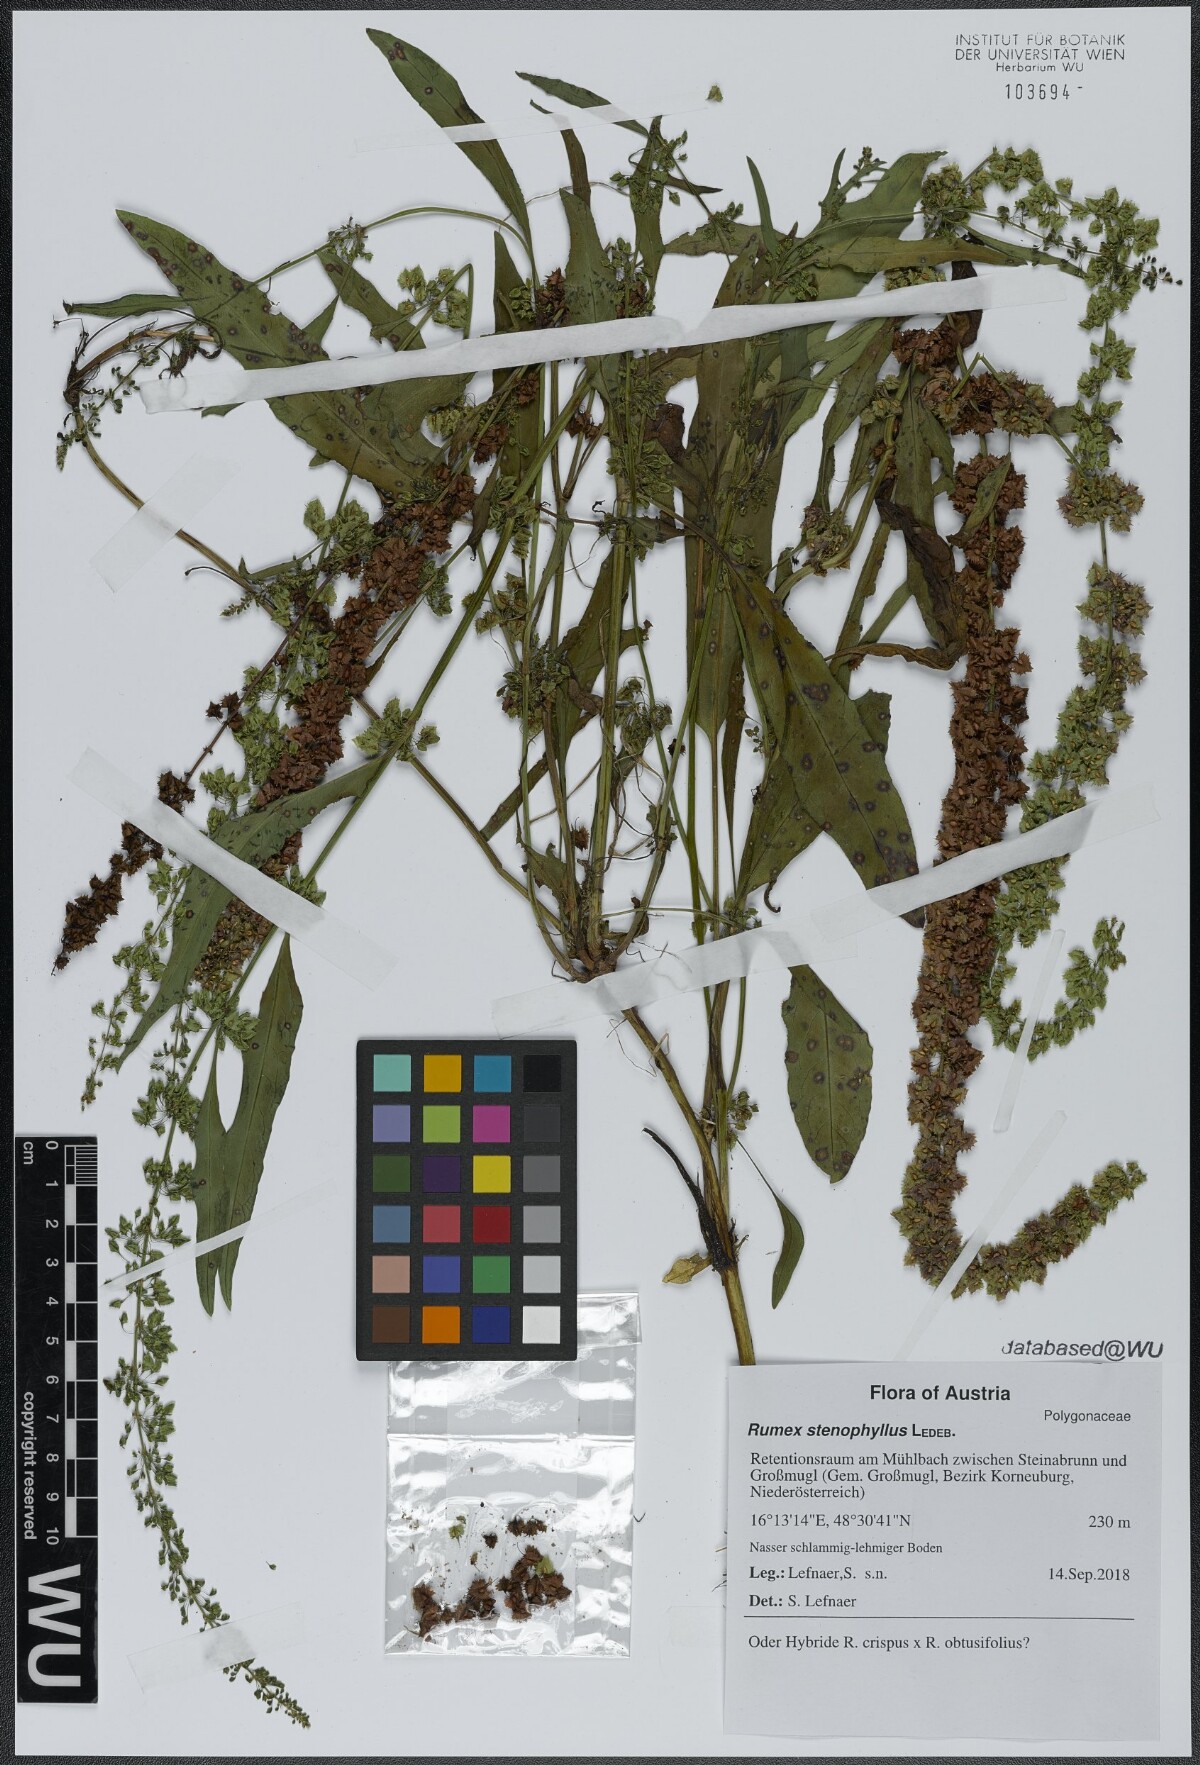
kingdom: Plantae
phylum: Tracheophyta
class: Magnoliopsida
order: Caryophyllales
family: Polygonaceae
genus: Rumex
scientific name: Rumex stenophyllus
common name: Narrowleaf dock
